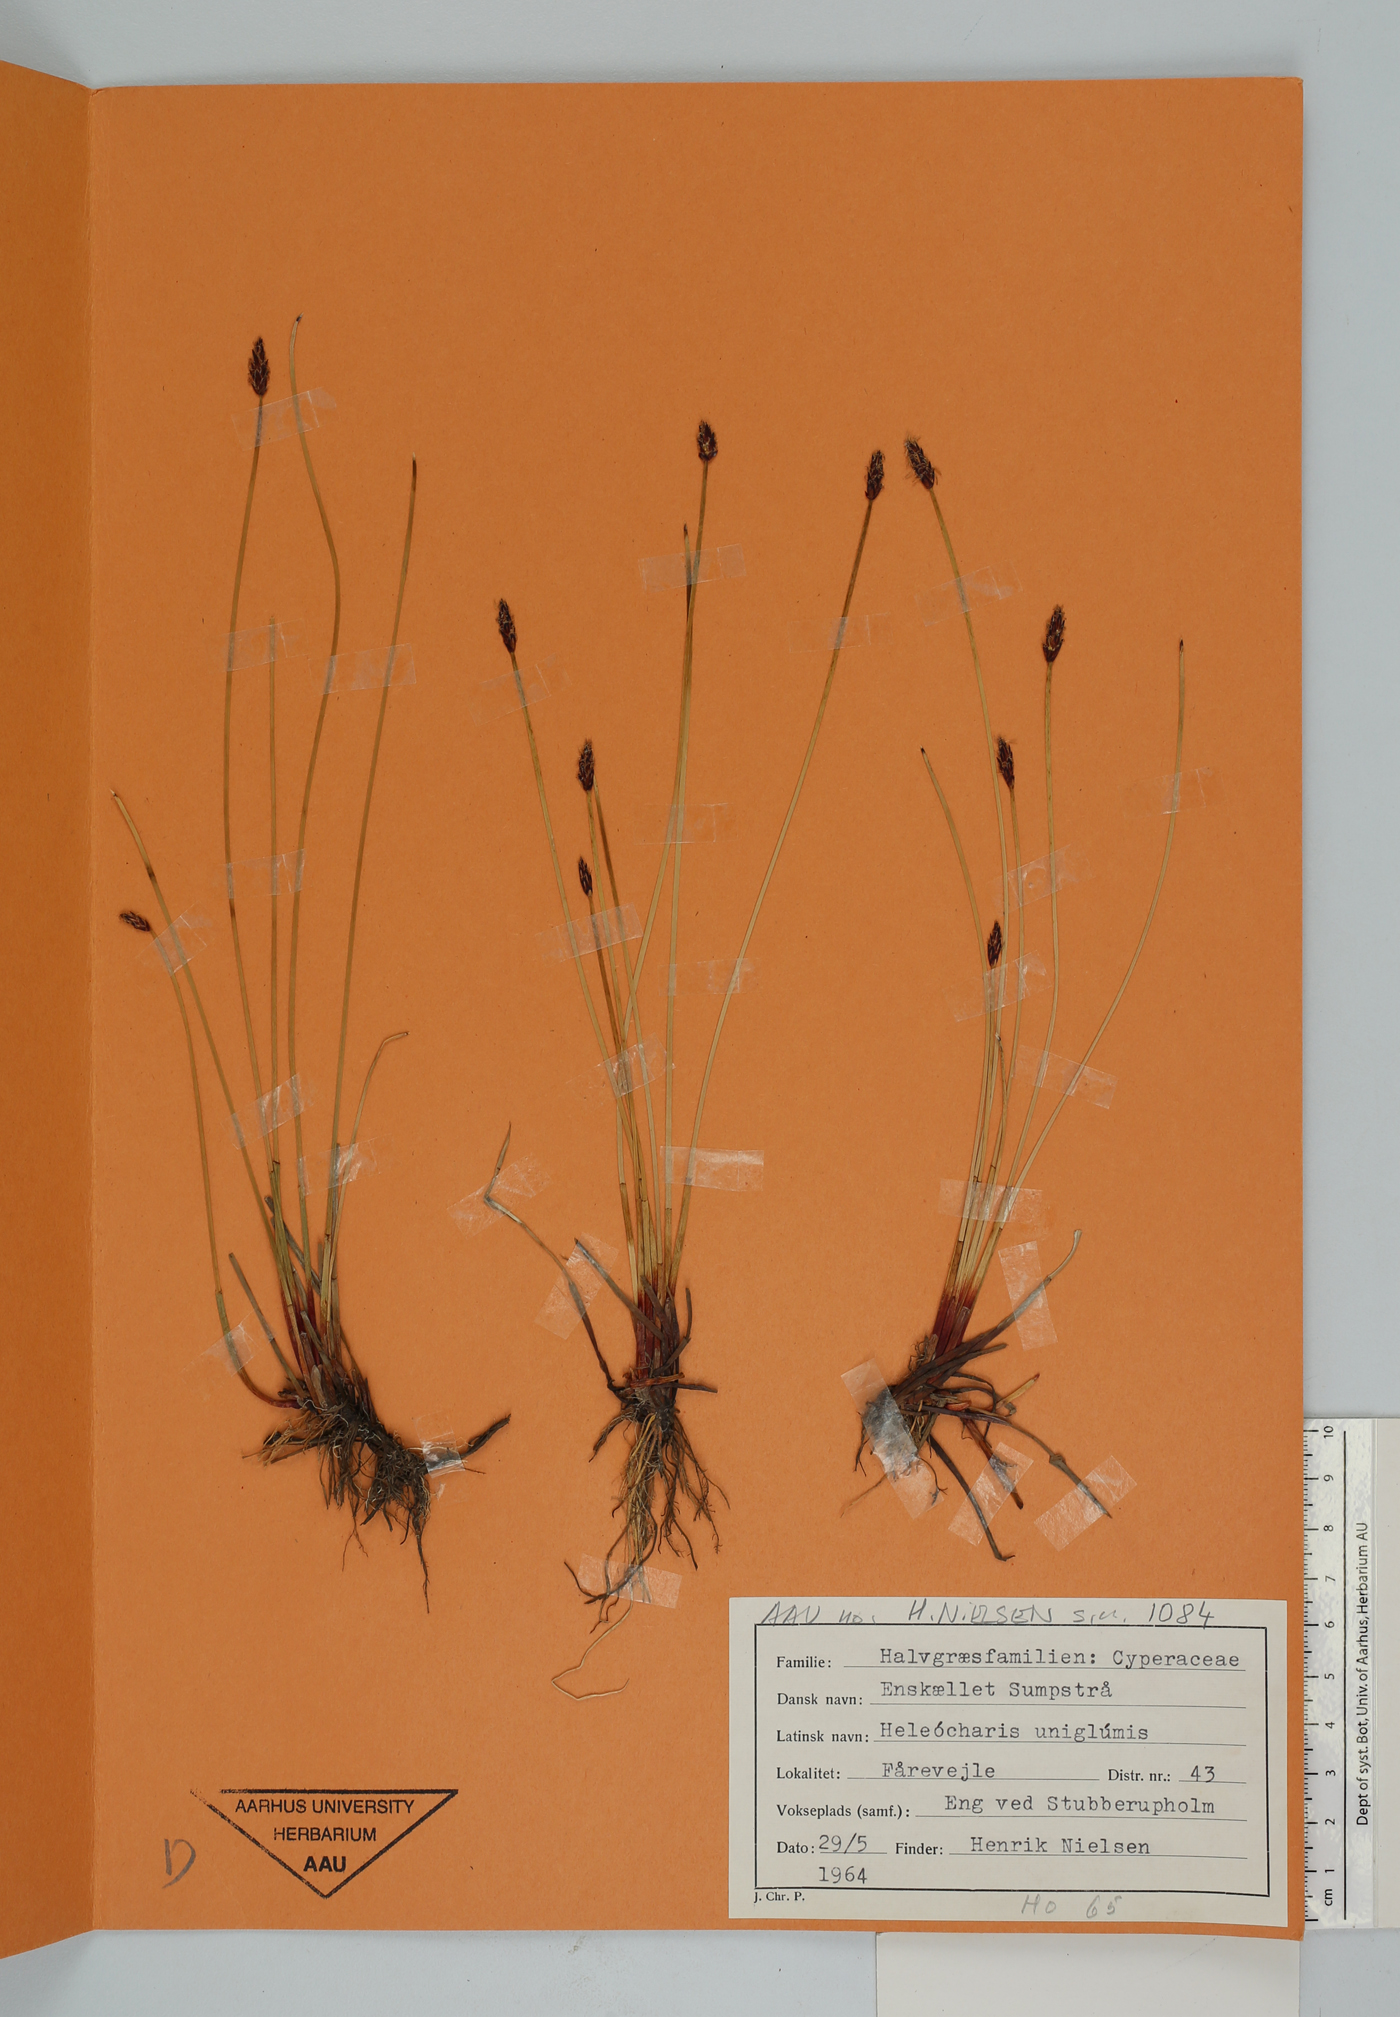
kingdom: Plantae
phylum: Tracheophyta
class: Liliopsida
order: Poales
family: Cyperaceae
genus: Eleocharis
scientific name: Eleocharis uniglumis
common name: Slender spike-rush
